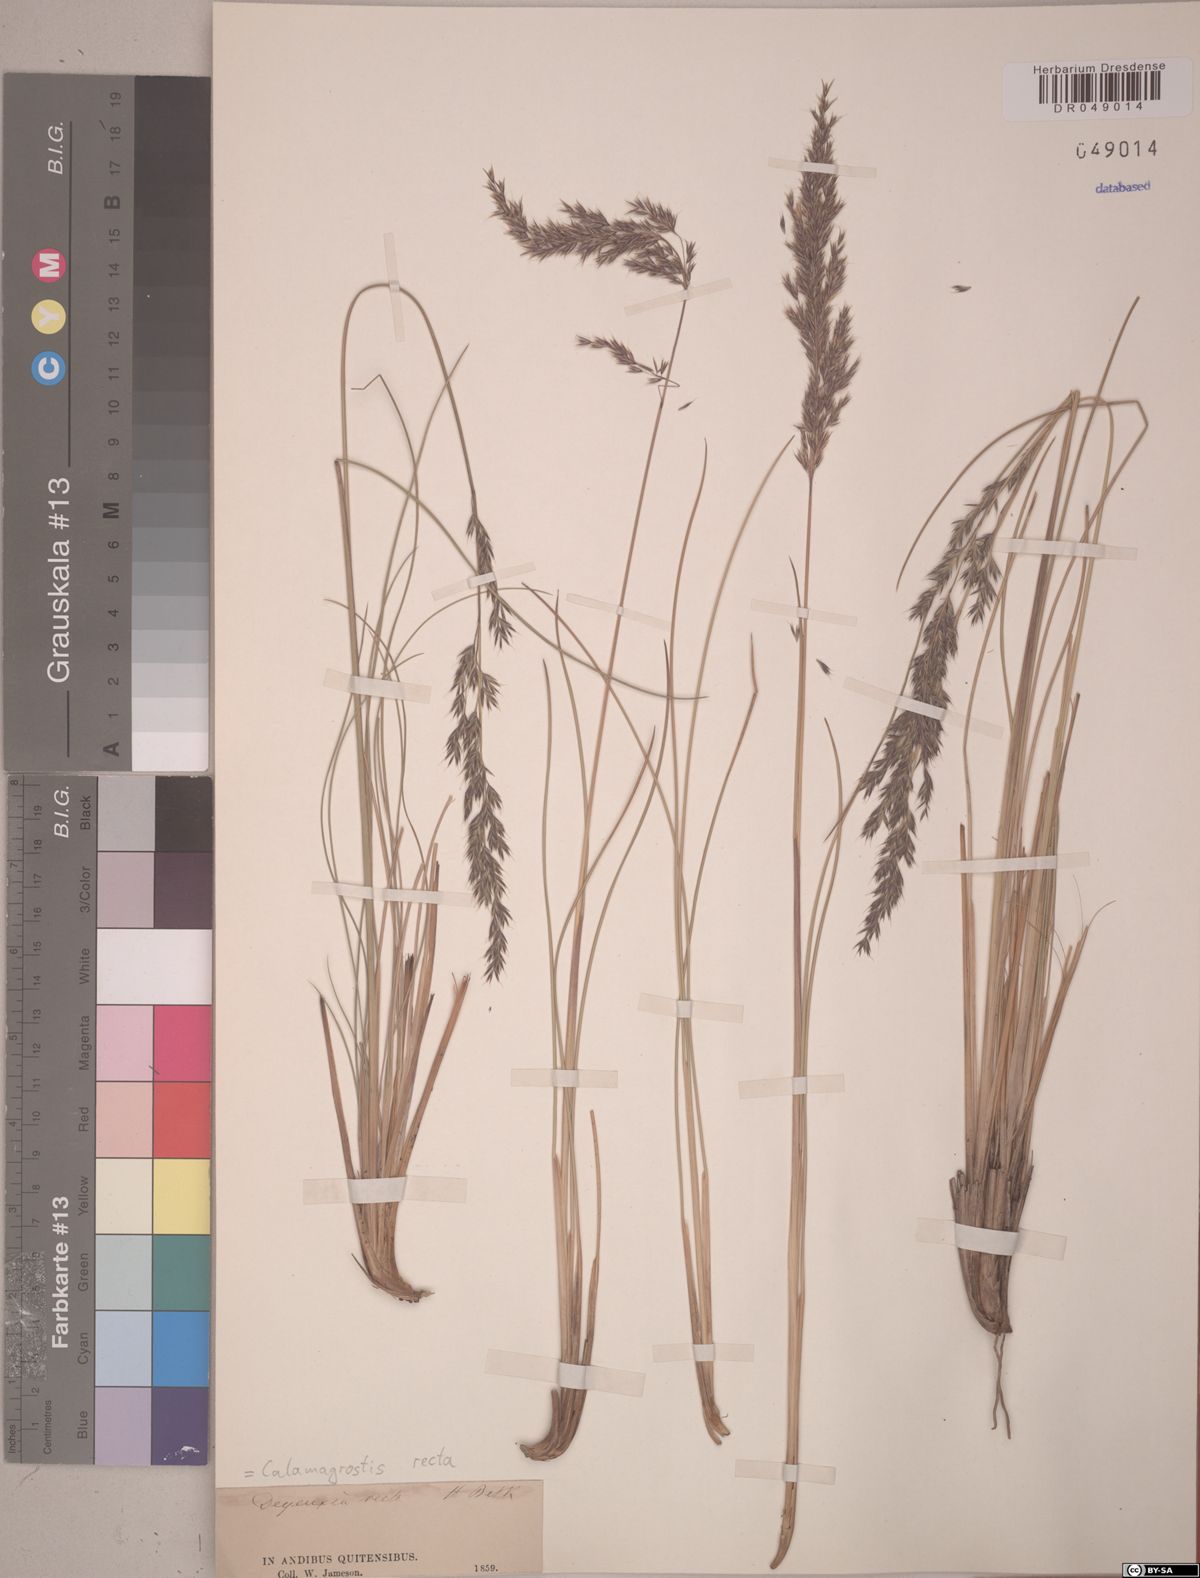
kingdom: Plantae
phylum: Tracheophyta
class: Liliopsida
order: Poales
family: Poaceae
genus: Cinnagrostis
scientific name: Cinnagrostis recta
